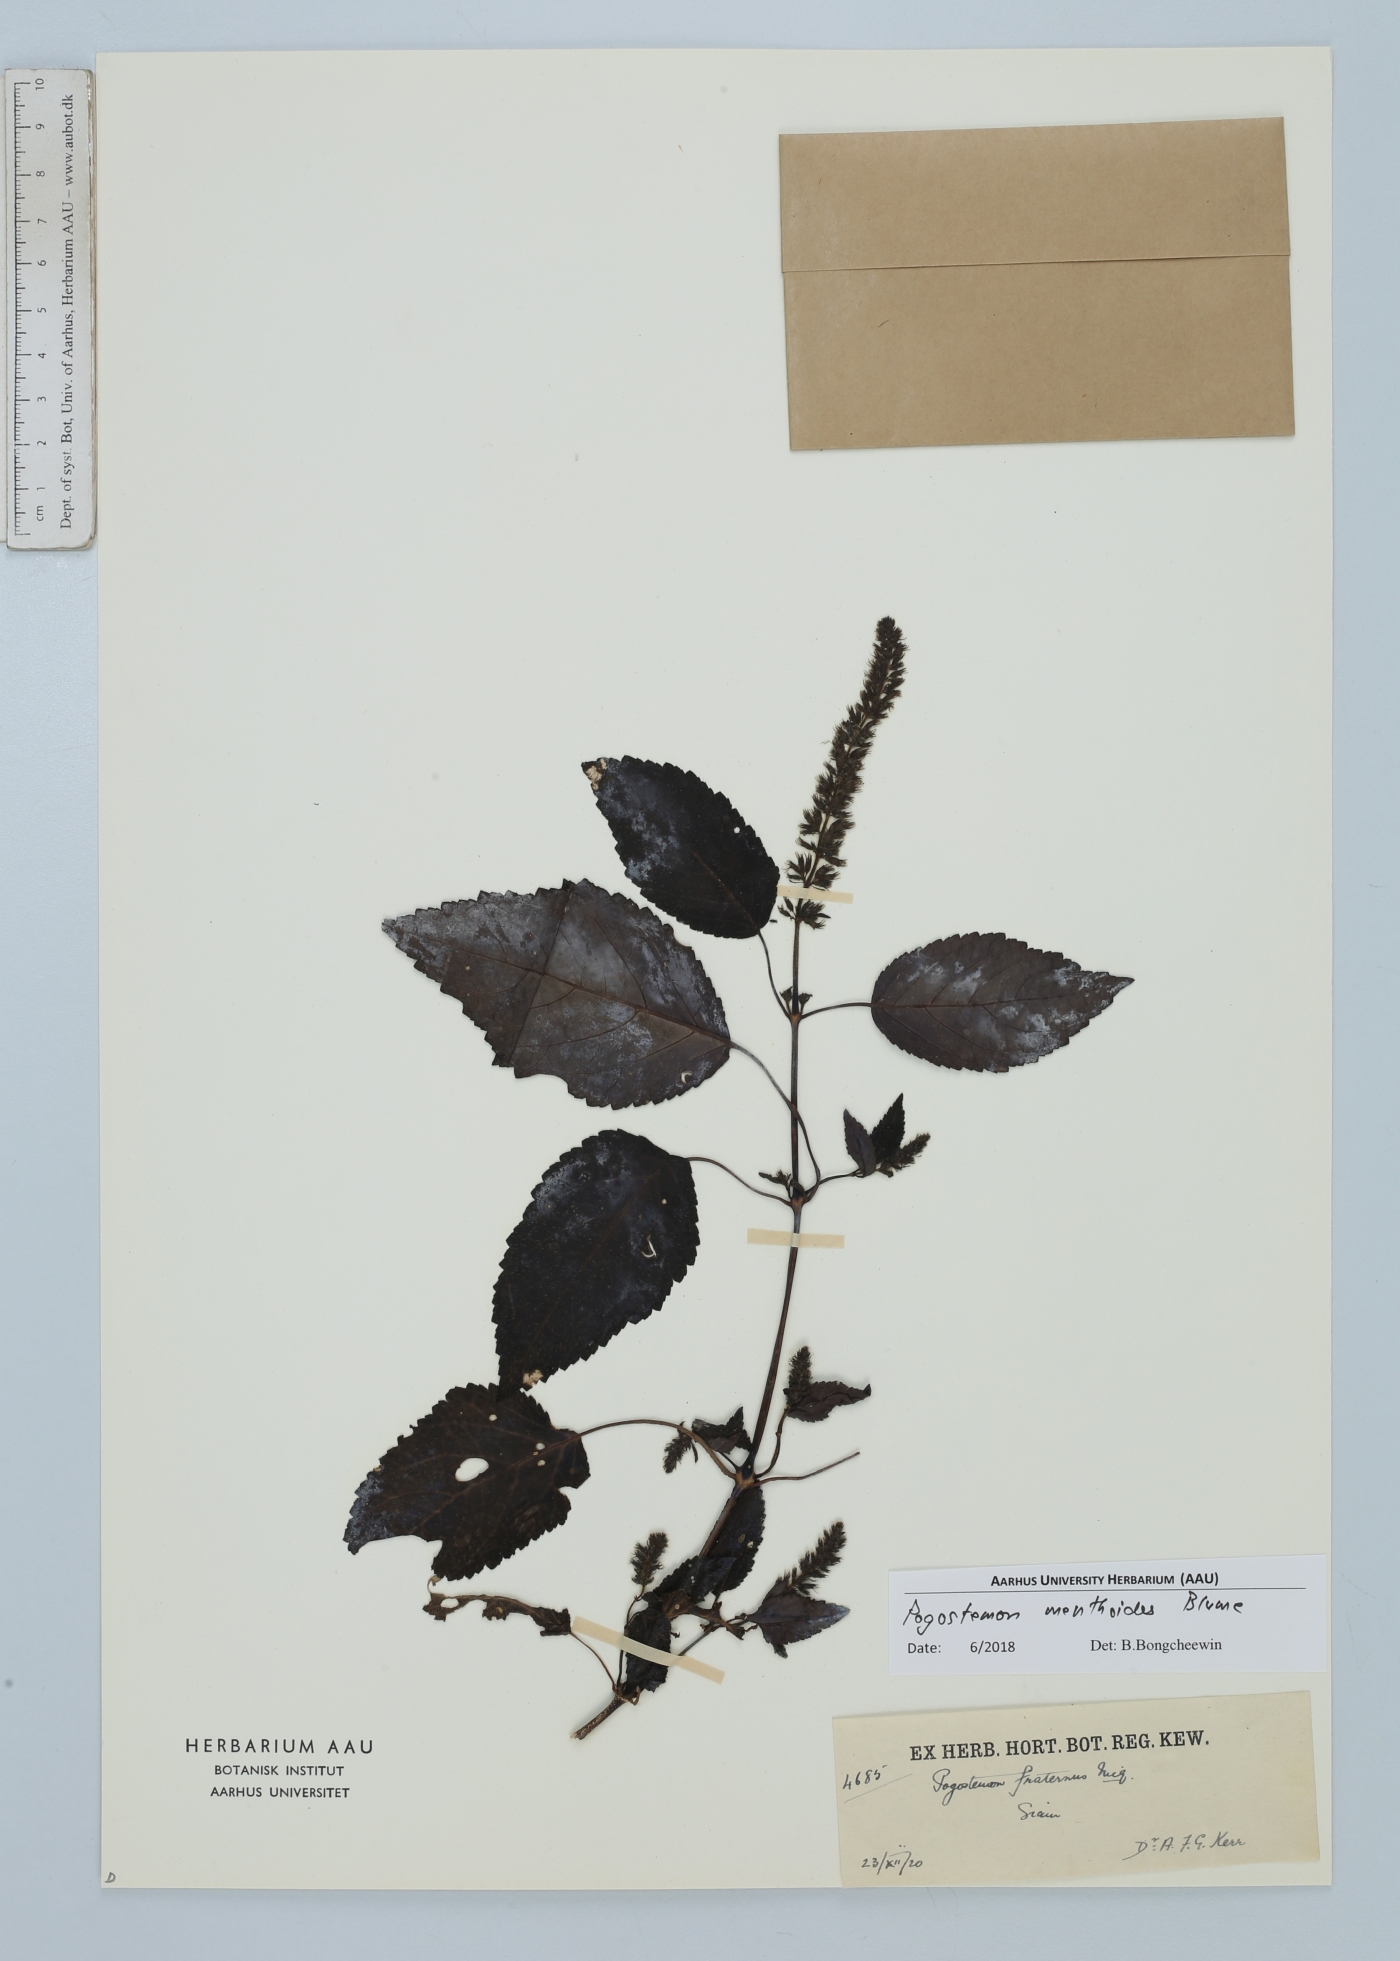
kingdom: Plantae
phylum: Tracheophyta
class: Magnoliopsida
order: Lamiales
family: Lamiaceae
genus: Pogostemon
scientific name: Pogostemon menthoides
